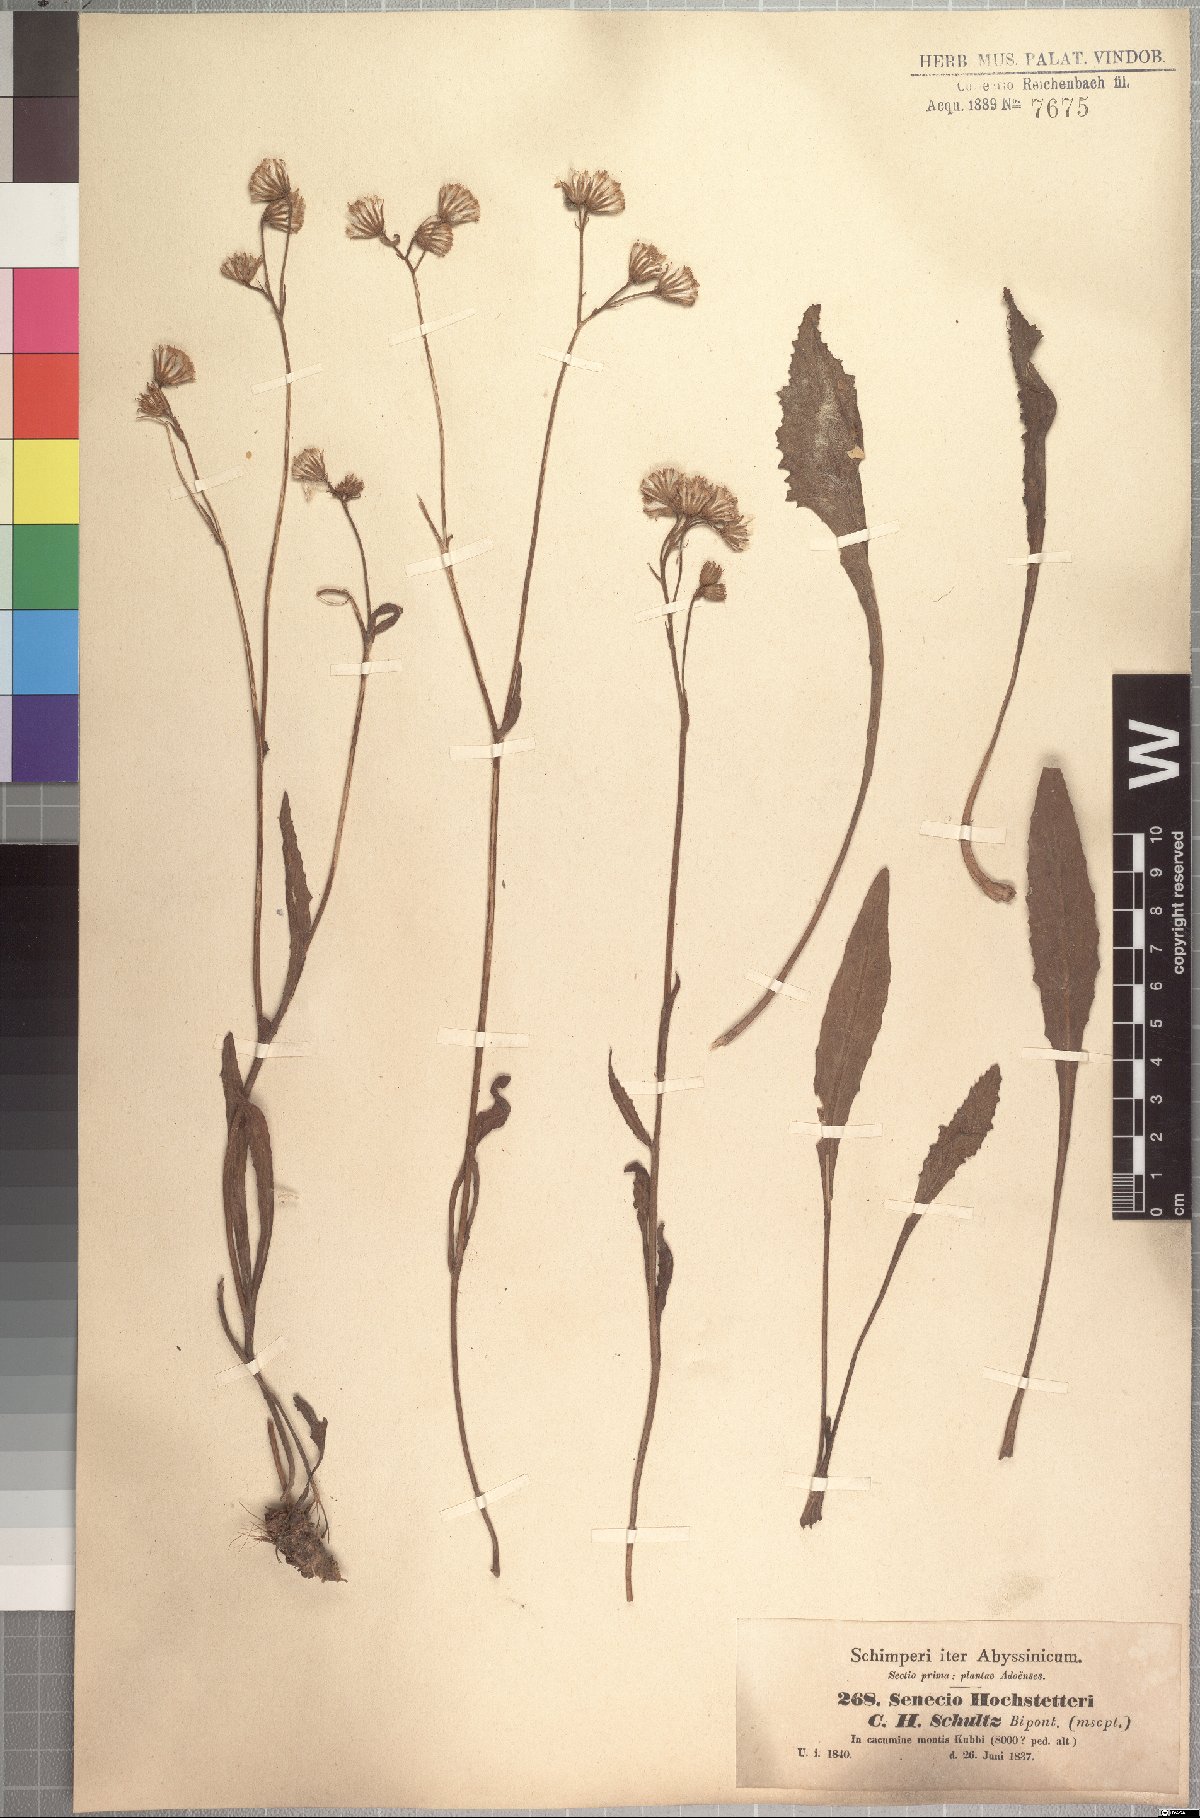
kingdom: Plantae
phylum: Tracheophyta
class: Magnoliopsida
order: Asterales
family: Asteraceae
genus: Senecio
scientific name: Senecio hochstetteri
